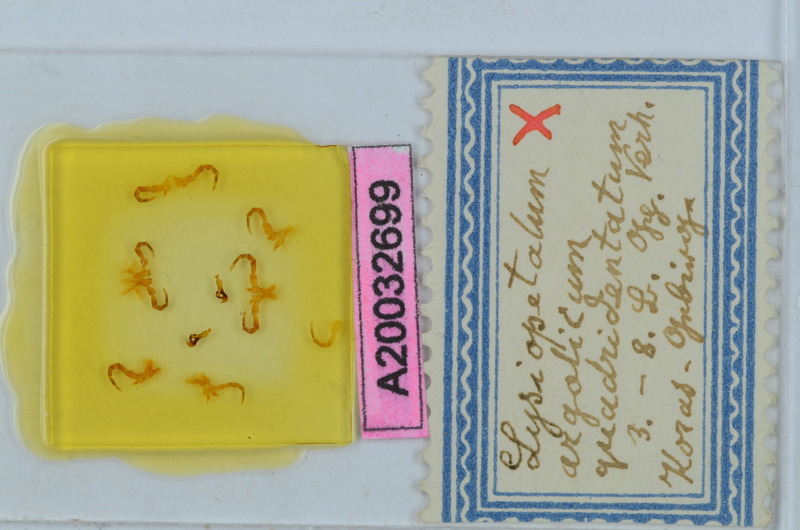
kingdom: Animalia
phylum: Arthropoda
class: Diplopoda
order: Callipodida
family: Schizopetalidae
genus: Acanthopetalum
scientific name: Acanthopetalum richii
